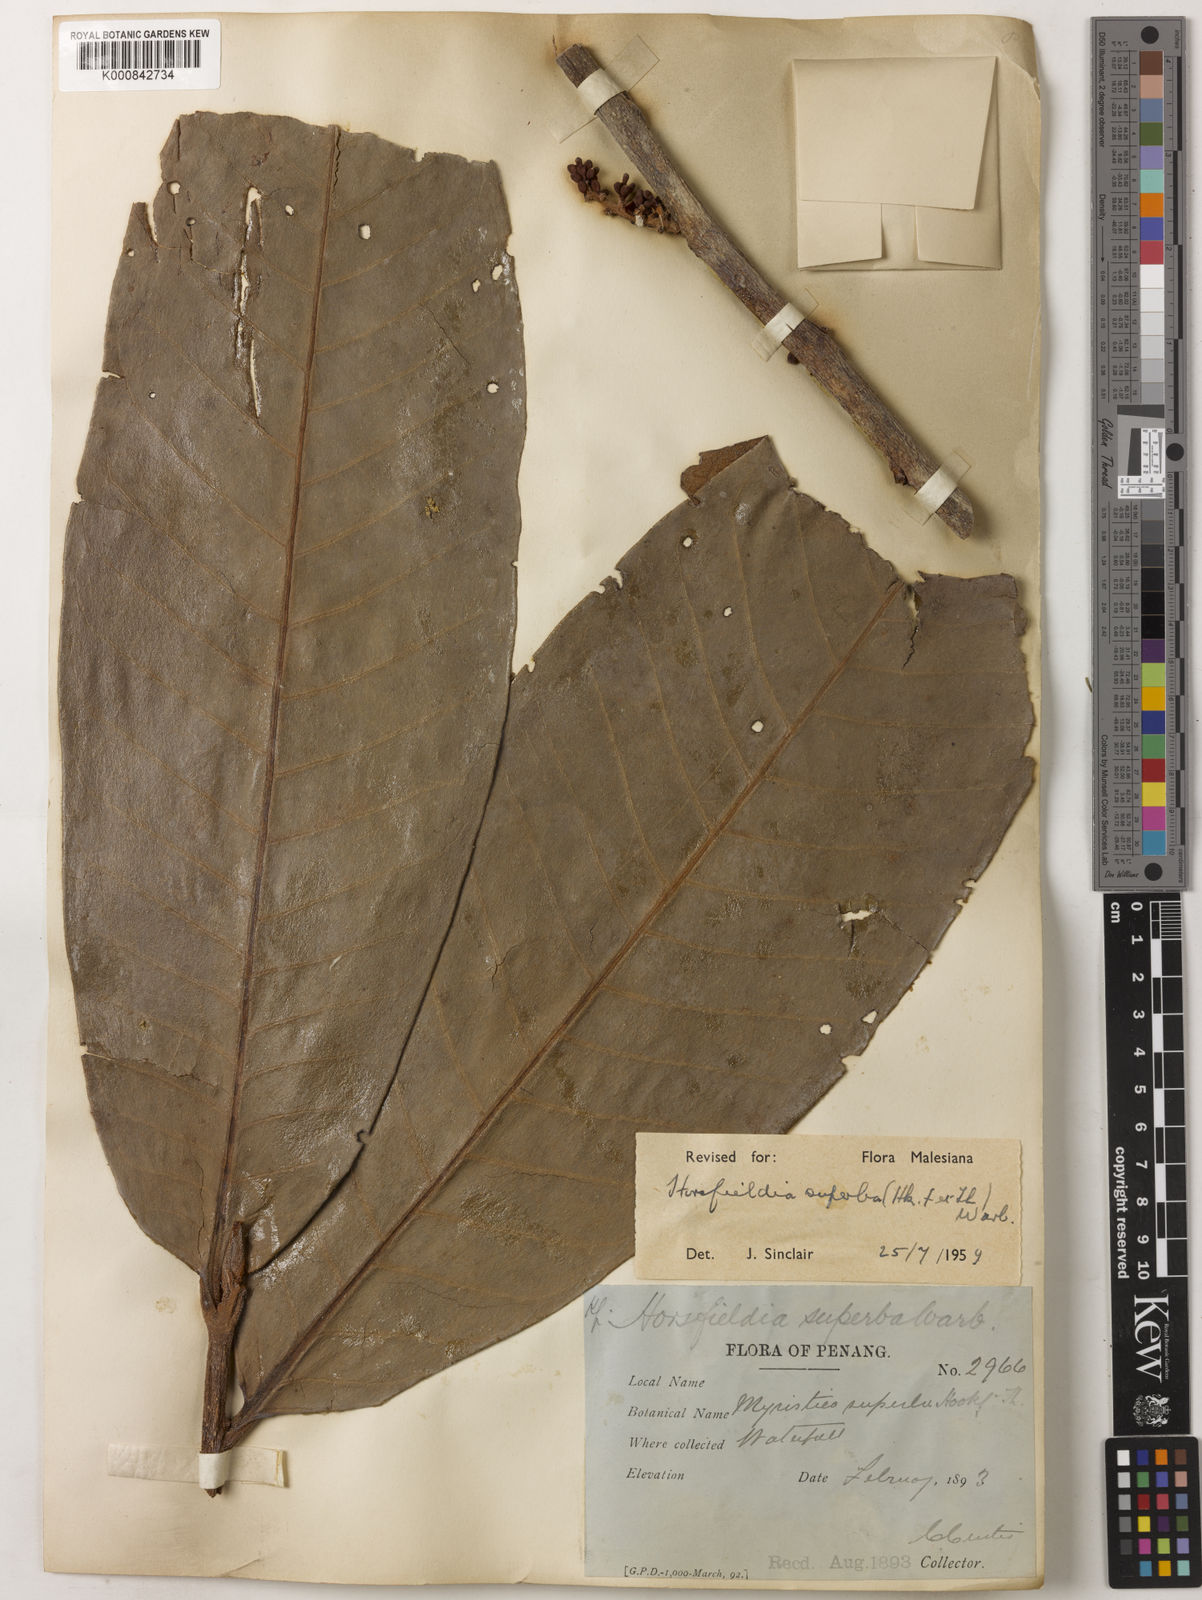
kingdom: Plantae
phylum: Tracheophyta
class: Magnoliopsida
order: Magnoliales
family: Myristicaceae
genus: Horsfieldia
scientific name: Horsfieldia superba
